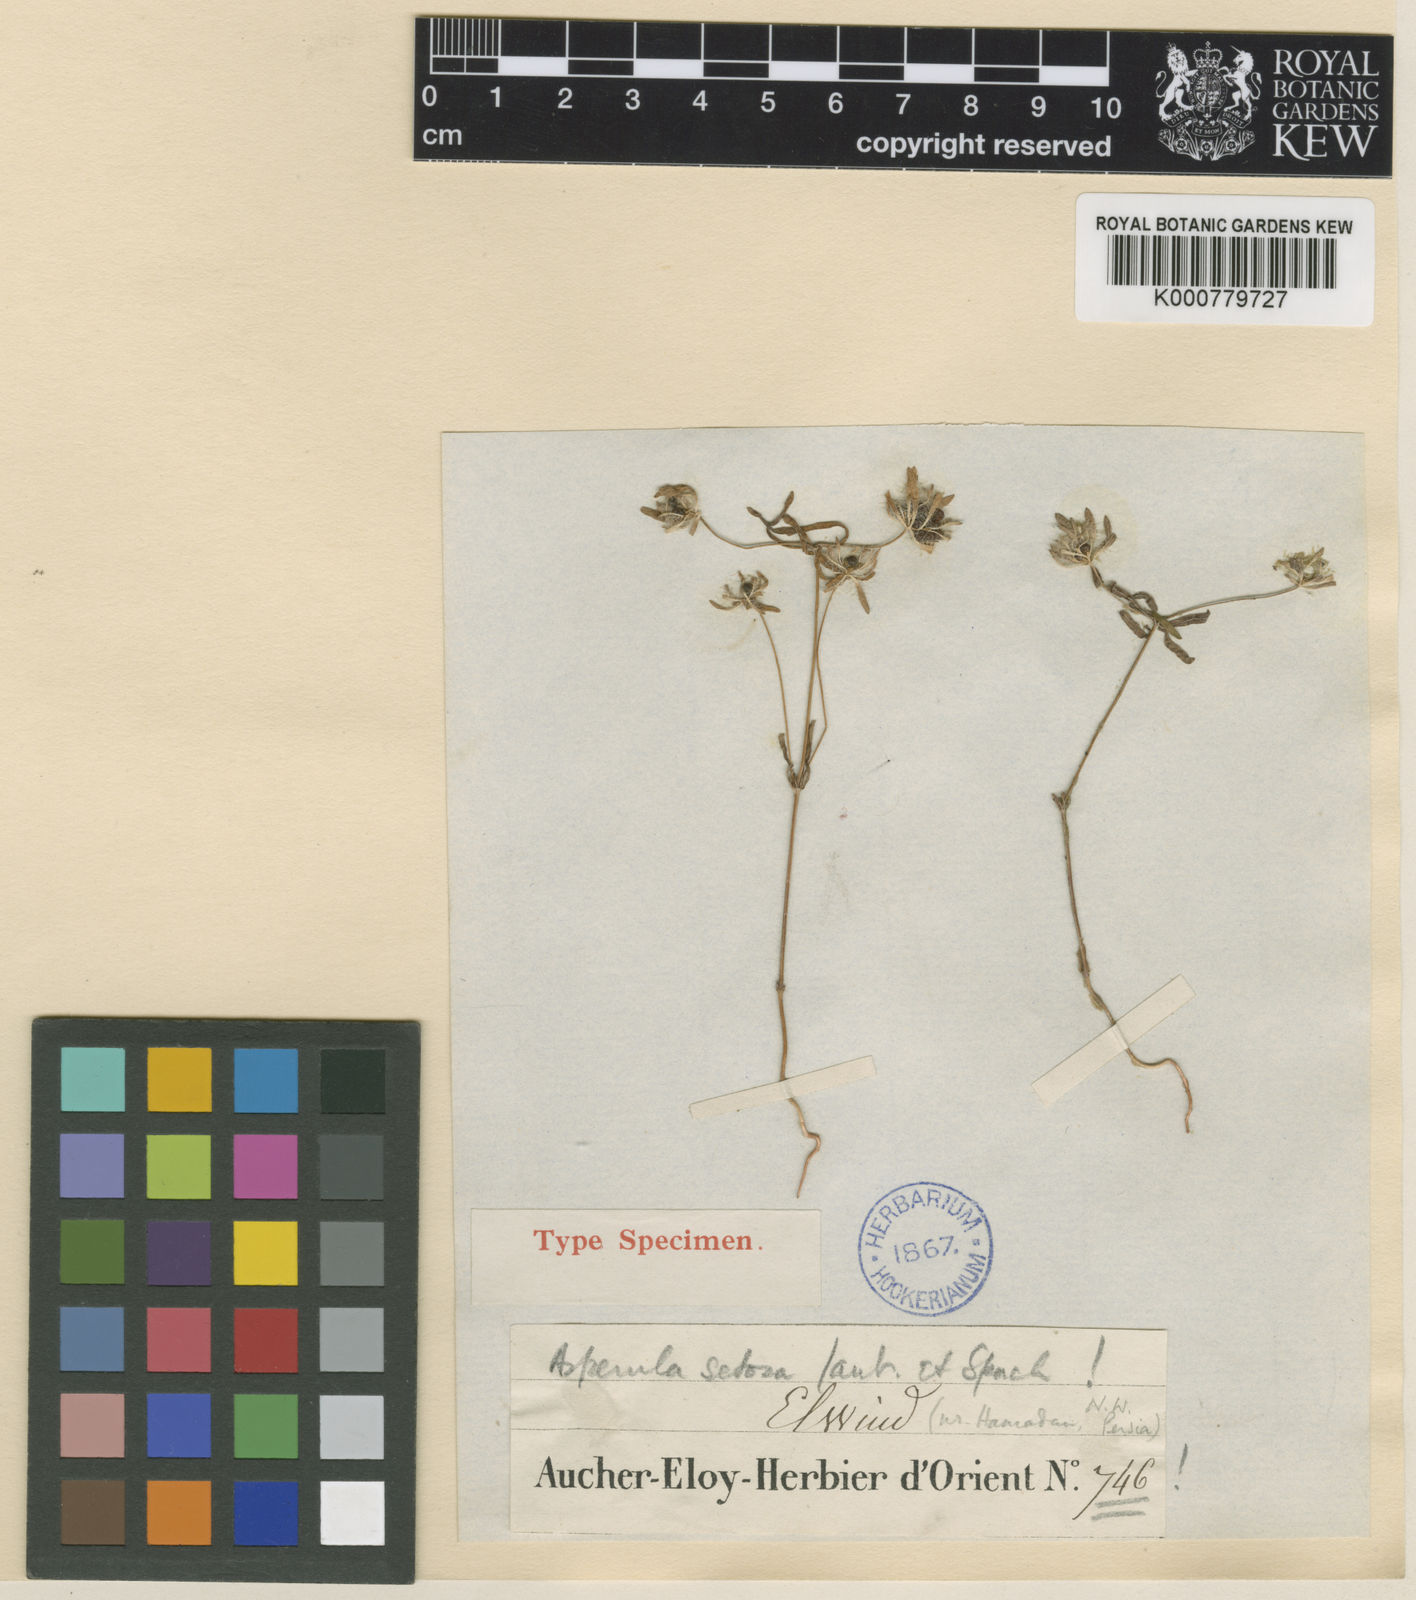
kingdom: Plantae
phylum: Tracheophyta
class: Magnoliopsida
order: Gentianales
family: Rubiaceae
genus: Asperula
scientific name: Asperula setosa
